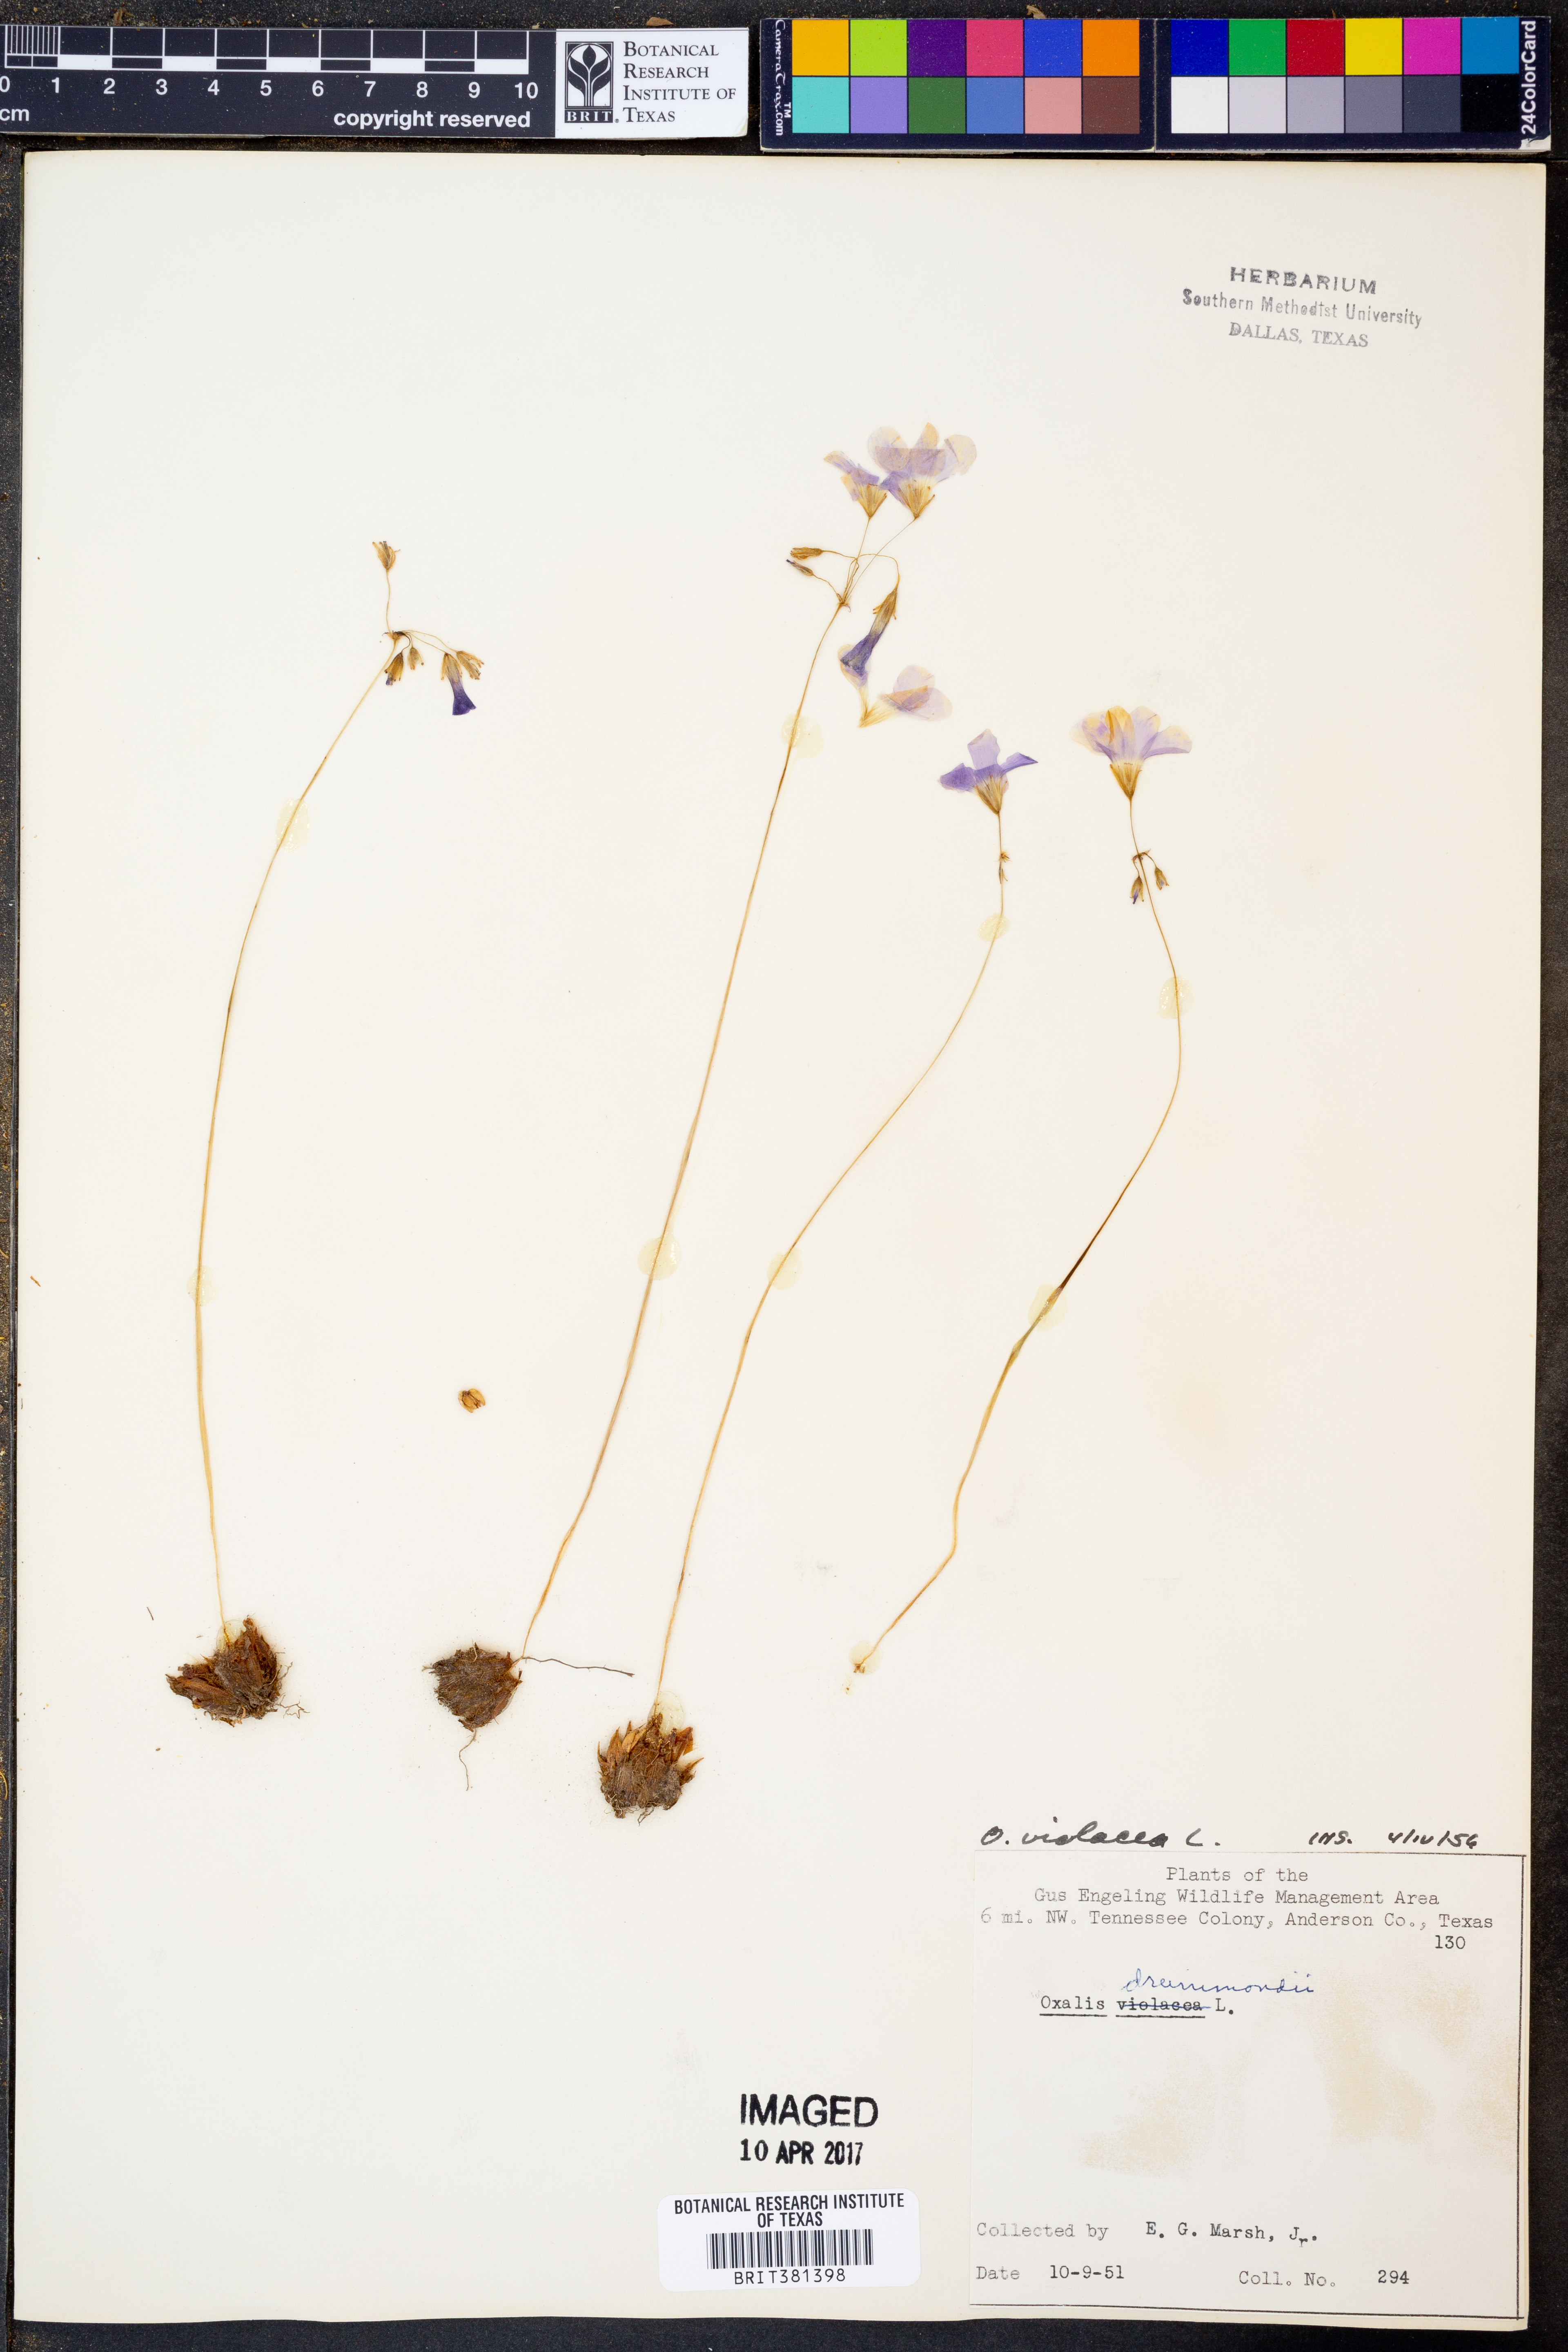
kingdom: Plantae
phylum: Tracheophyta
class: Magnoliopsida
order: Oxalidales
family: Oxalidaceae
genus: Oxalis
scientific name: Oxalis violacea
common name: Violet wood-sorrel
